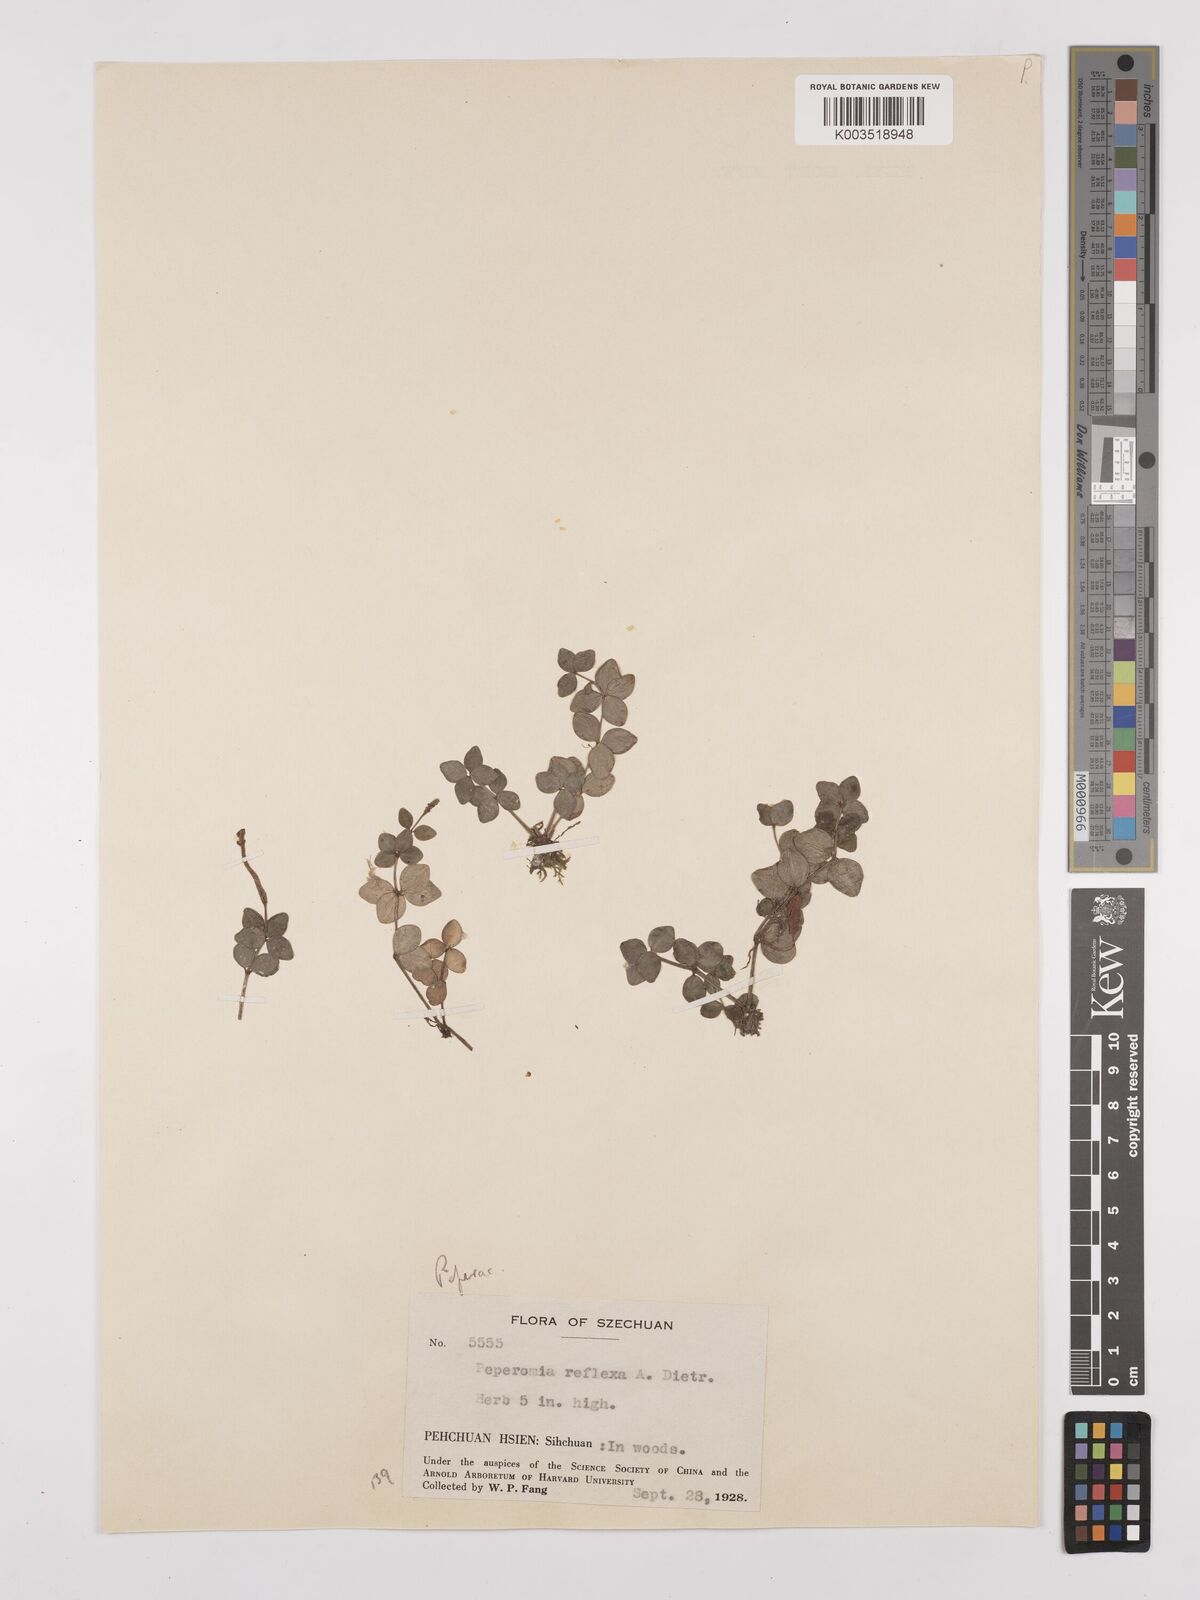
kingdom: Plantae
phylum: Tracheophyta
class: Magnoliopsida
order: Piperales
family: Piperaceae
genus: Peperomia
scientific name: Peperomia tetraphylla
